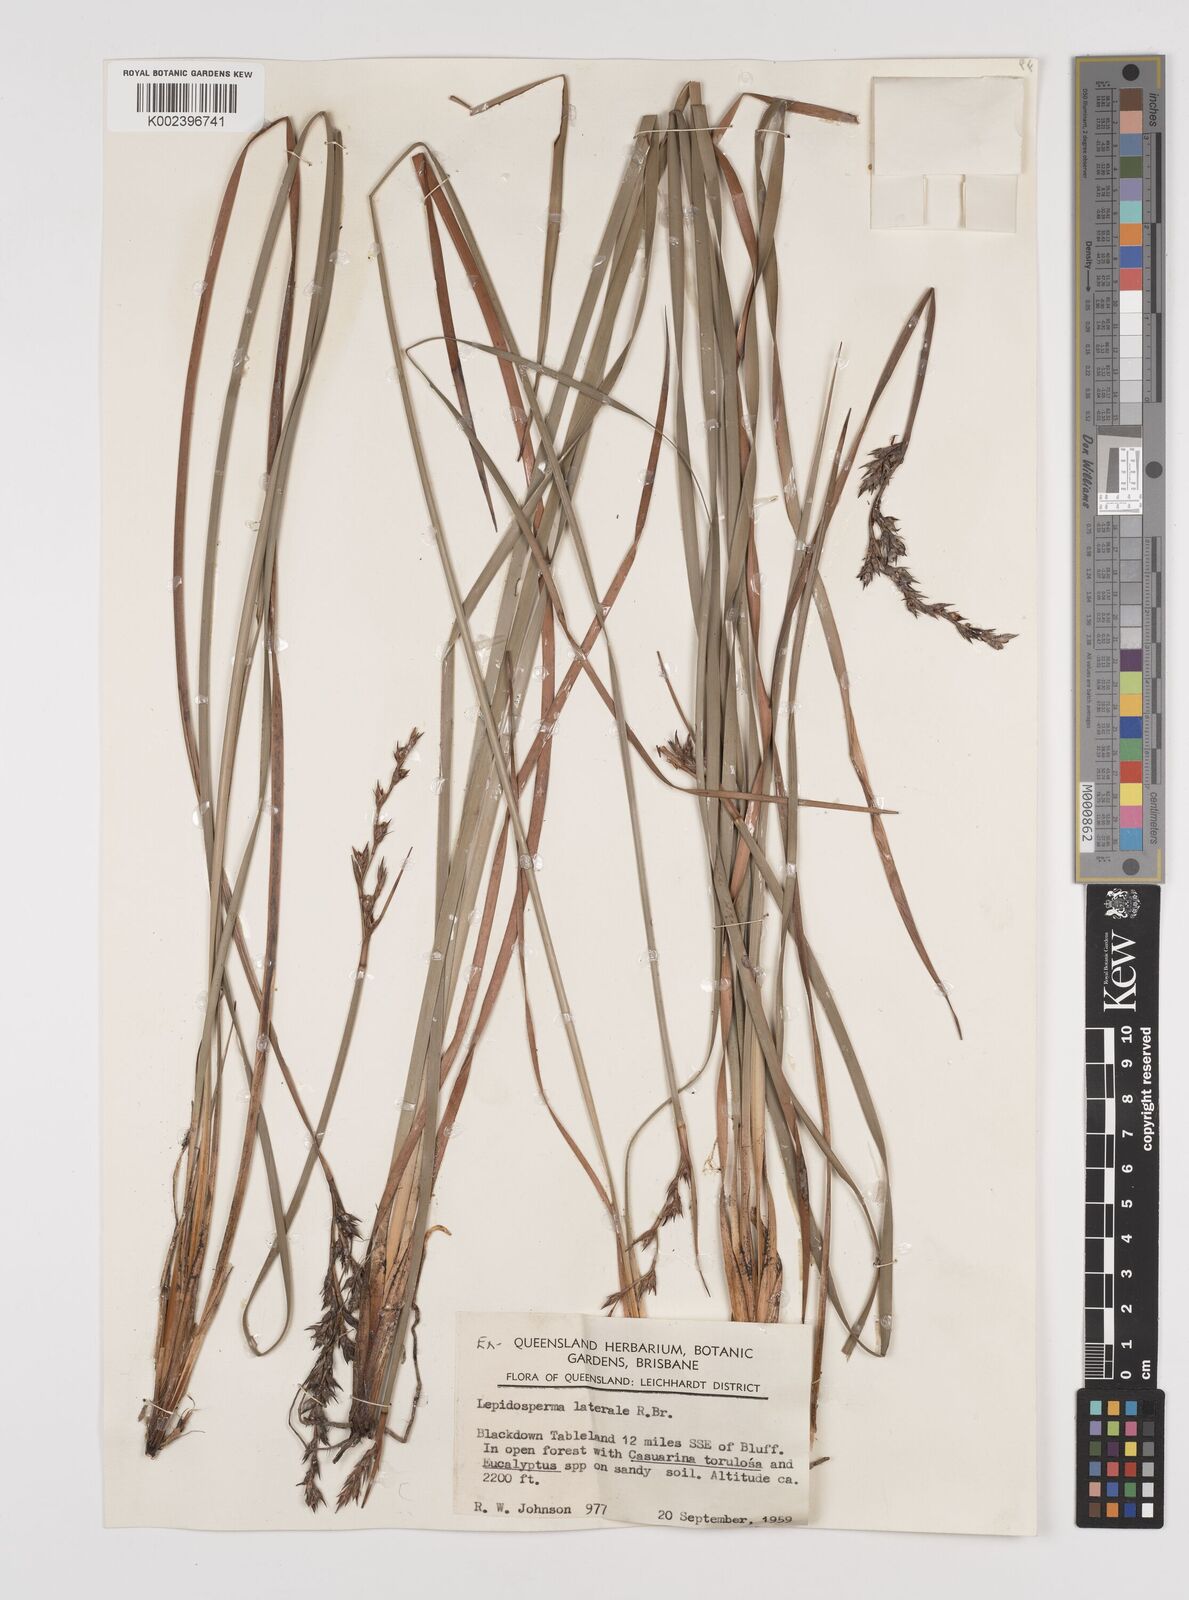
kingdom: Plantae
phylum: Tracheophyta
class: Liliopsida
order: Poales
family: Cyperaceae
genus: Lepidosperma
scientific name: Lepidosperma laterale
